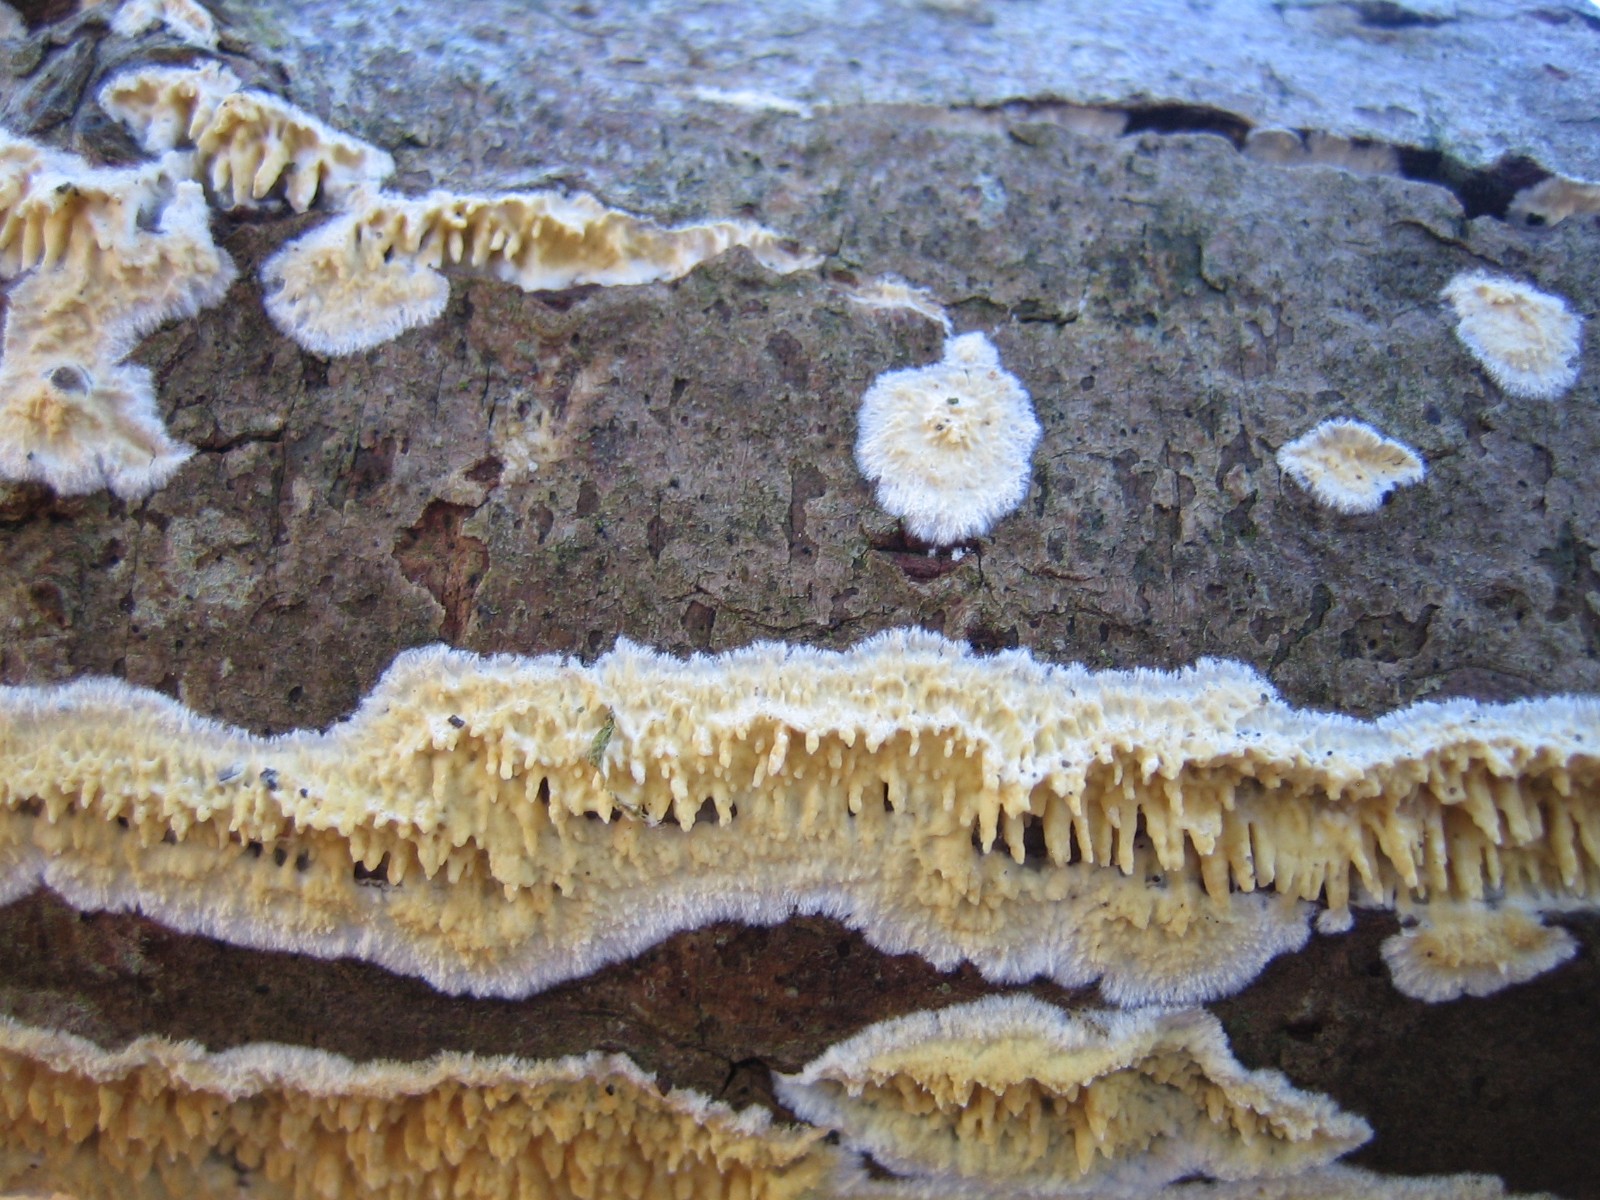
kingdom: Fungi
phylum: Basidiomycota
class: Agaricomycetes
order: Hymenochaetales
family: Schizoporaceae
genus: Xylodon
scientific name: Xylodon radula
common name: grovtandet kalkskind
